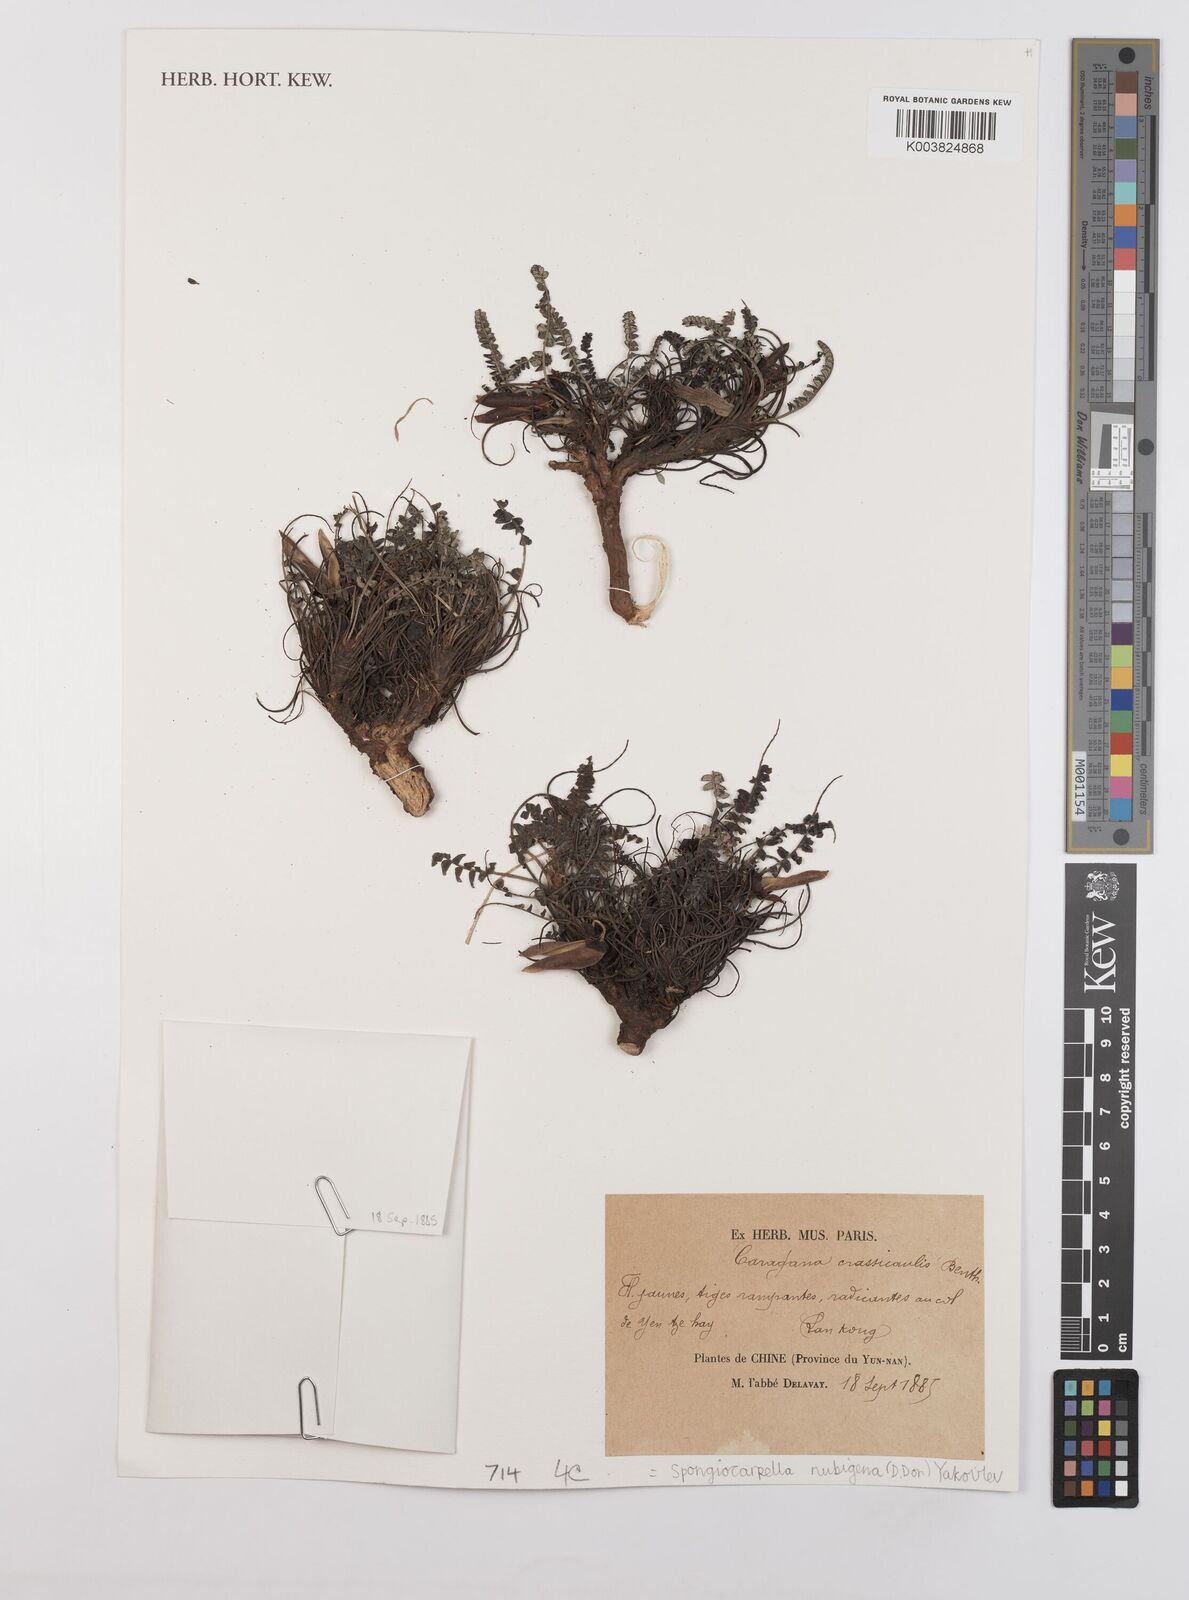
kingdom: Plantae
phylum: Tracheophyta
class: Magnoliopsida
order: Fabales
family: Fabaceae
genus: Chesneya
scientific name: Chesneya nubigena
